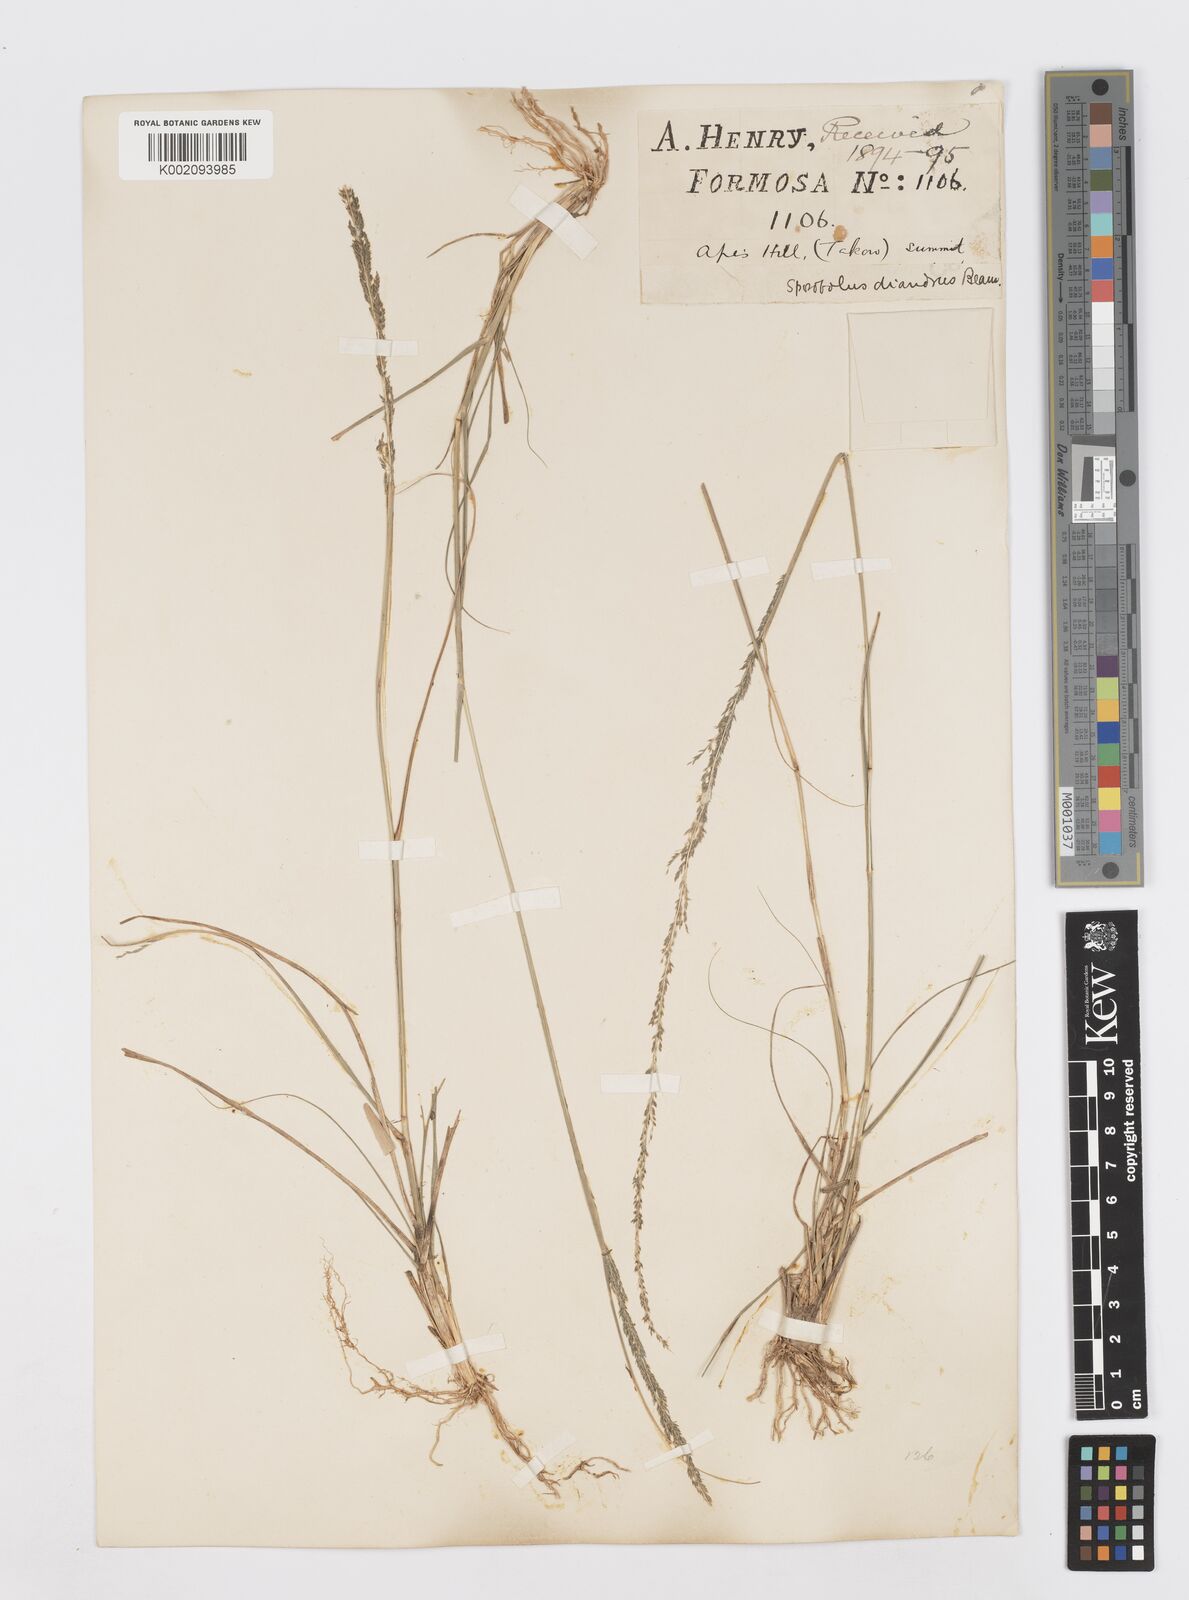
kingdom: Plantae
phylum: Tracheophyta
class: Liliopsida
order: Poales
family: Poaceae
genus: Sporobolus
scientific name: Sporobolus diandrus
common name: Tussock dropseed
